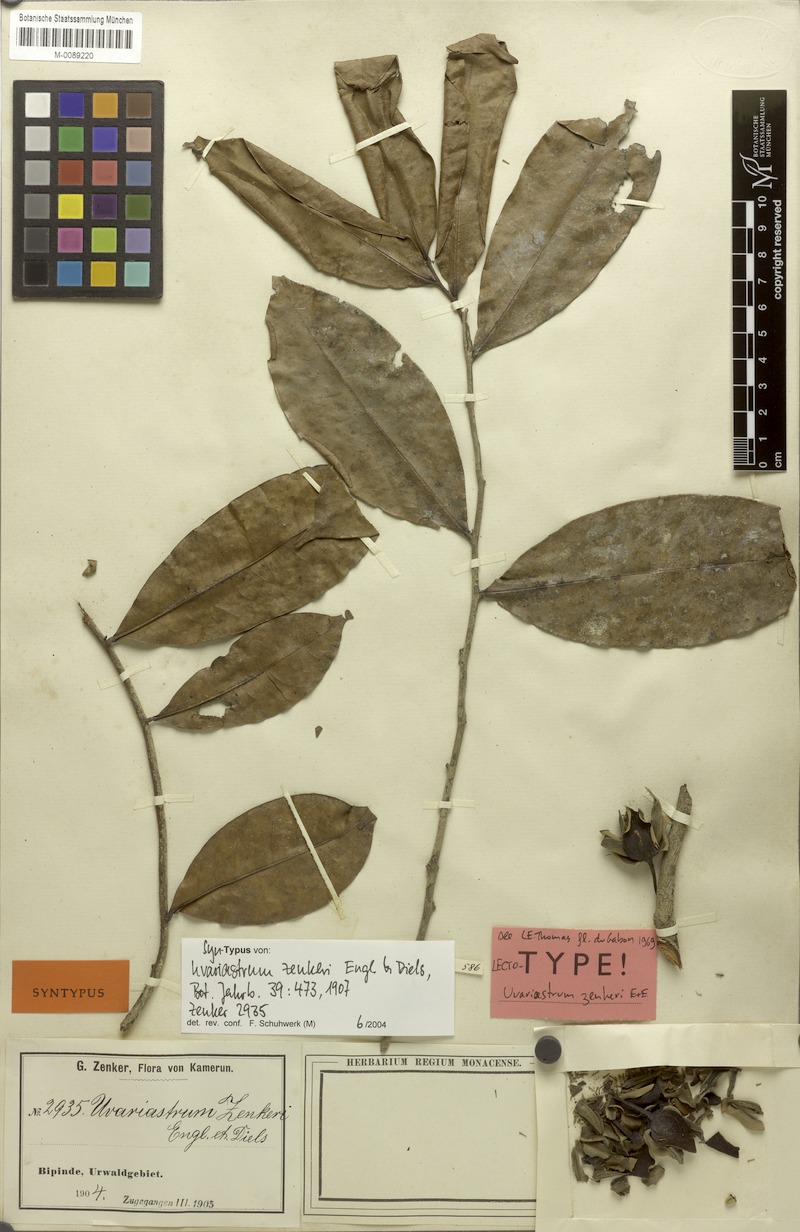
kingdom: Plantae
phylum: Tracheophyta
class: Magnoliopsida
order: Magnoliales
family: Annonaceae
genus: Uvariastrum
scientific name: Uvariastrum zenkeri
